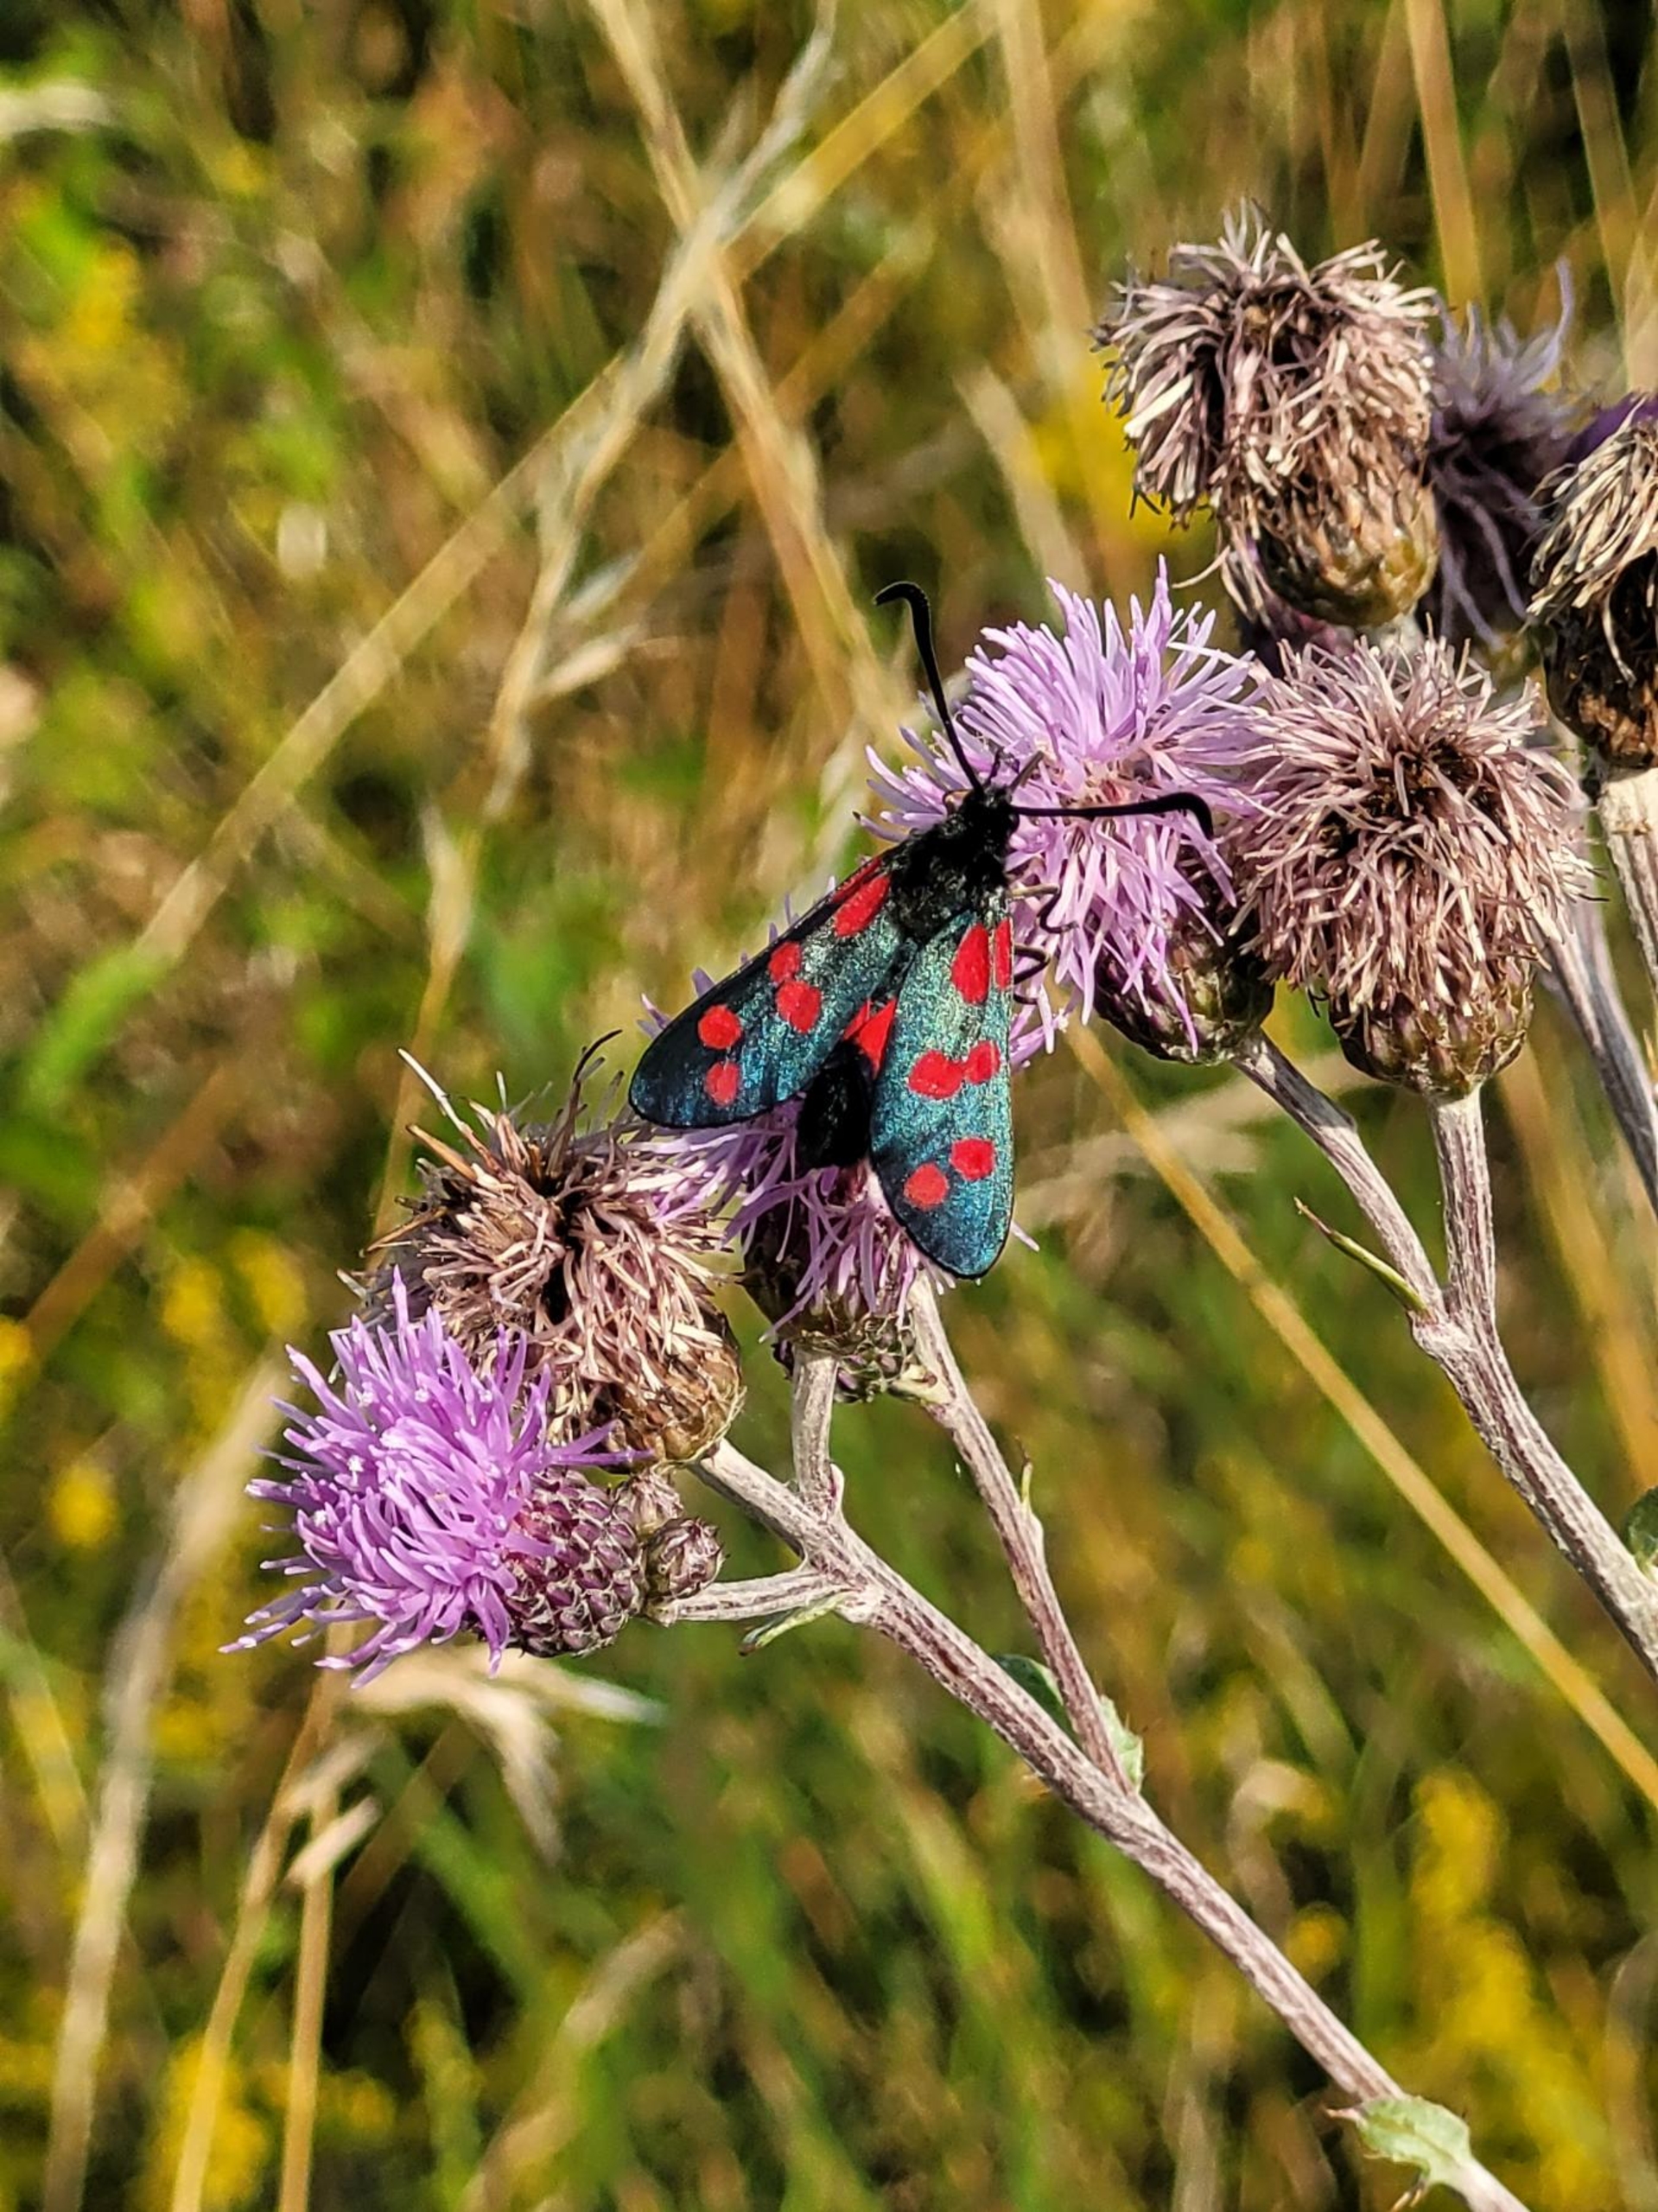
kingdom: Animalia
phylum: Arthropoda
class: Insecta
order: Lepidoptera
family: Zygaenidae
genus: Zygaena
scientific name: Zygaena filipendulae
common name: Seksplettet køllesværmer
